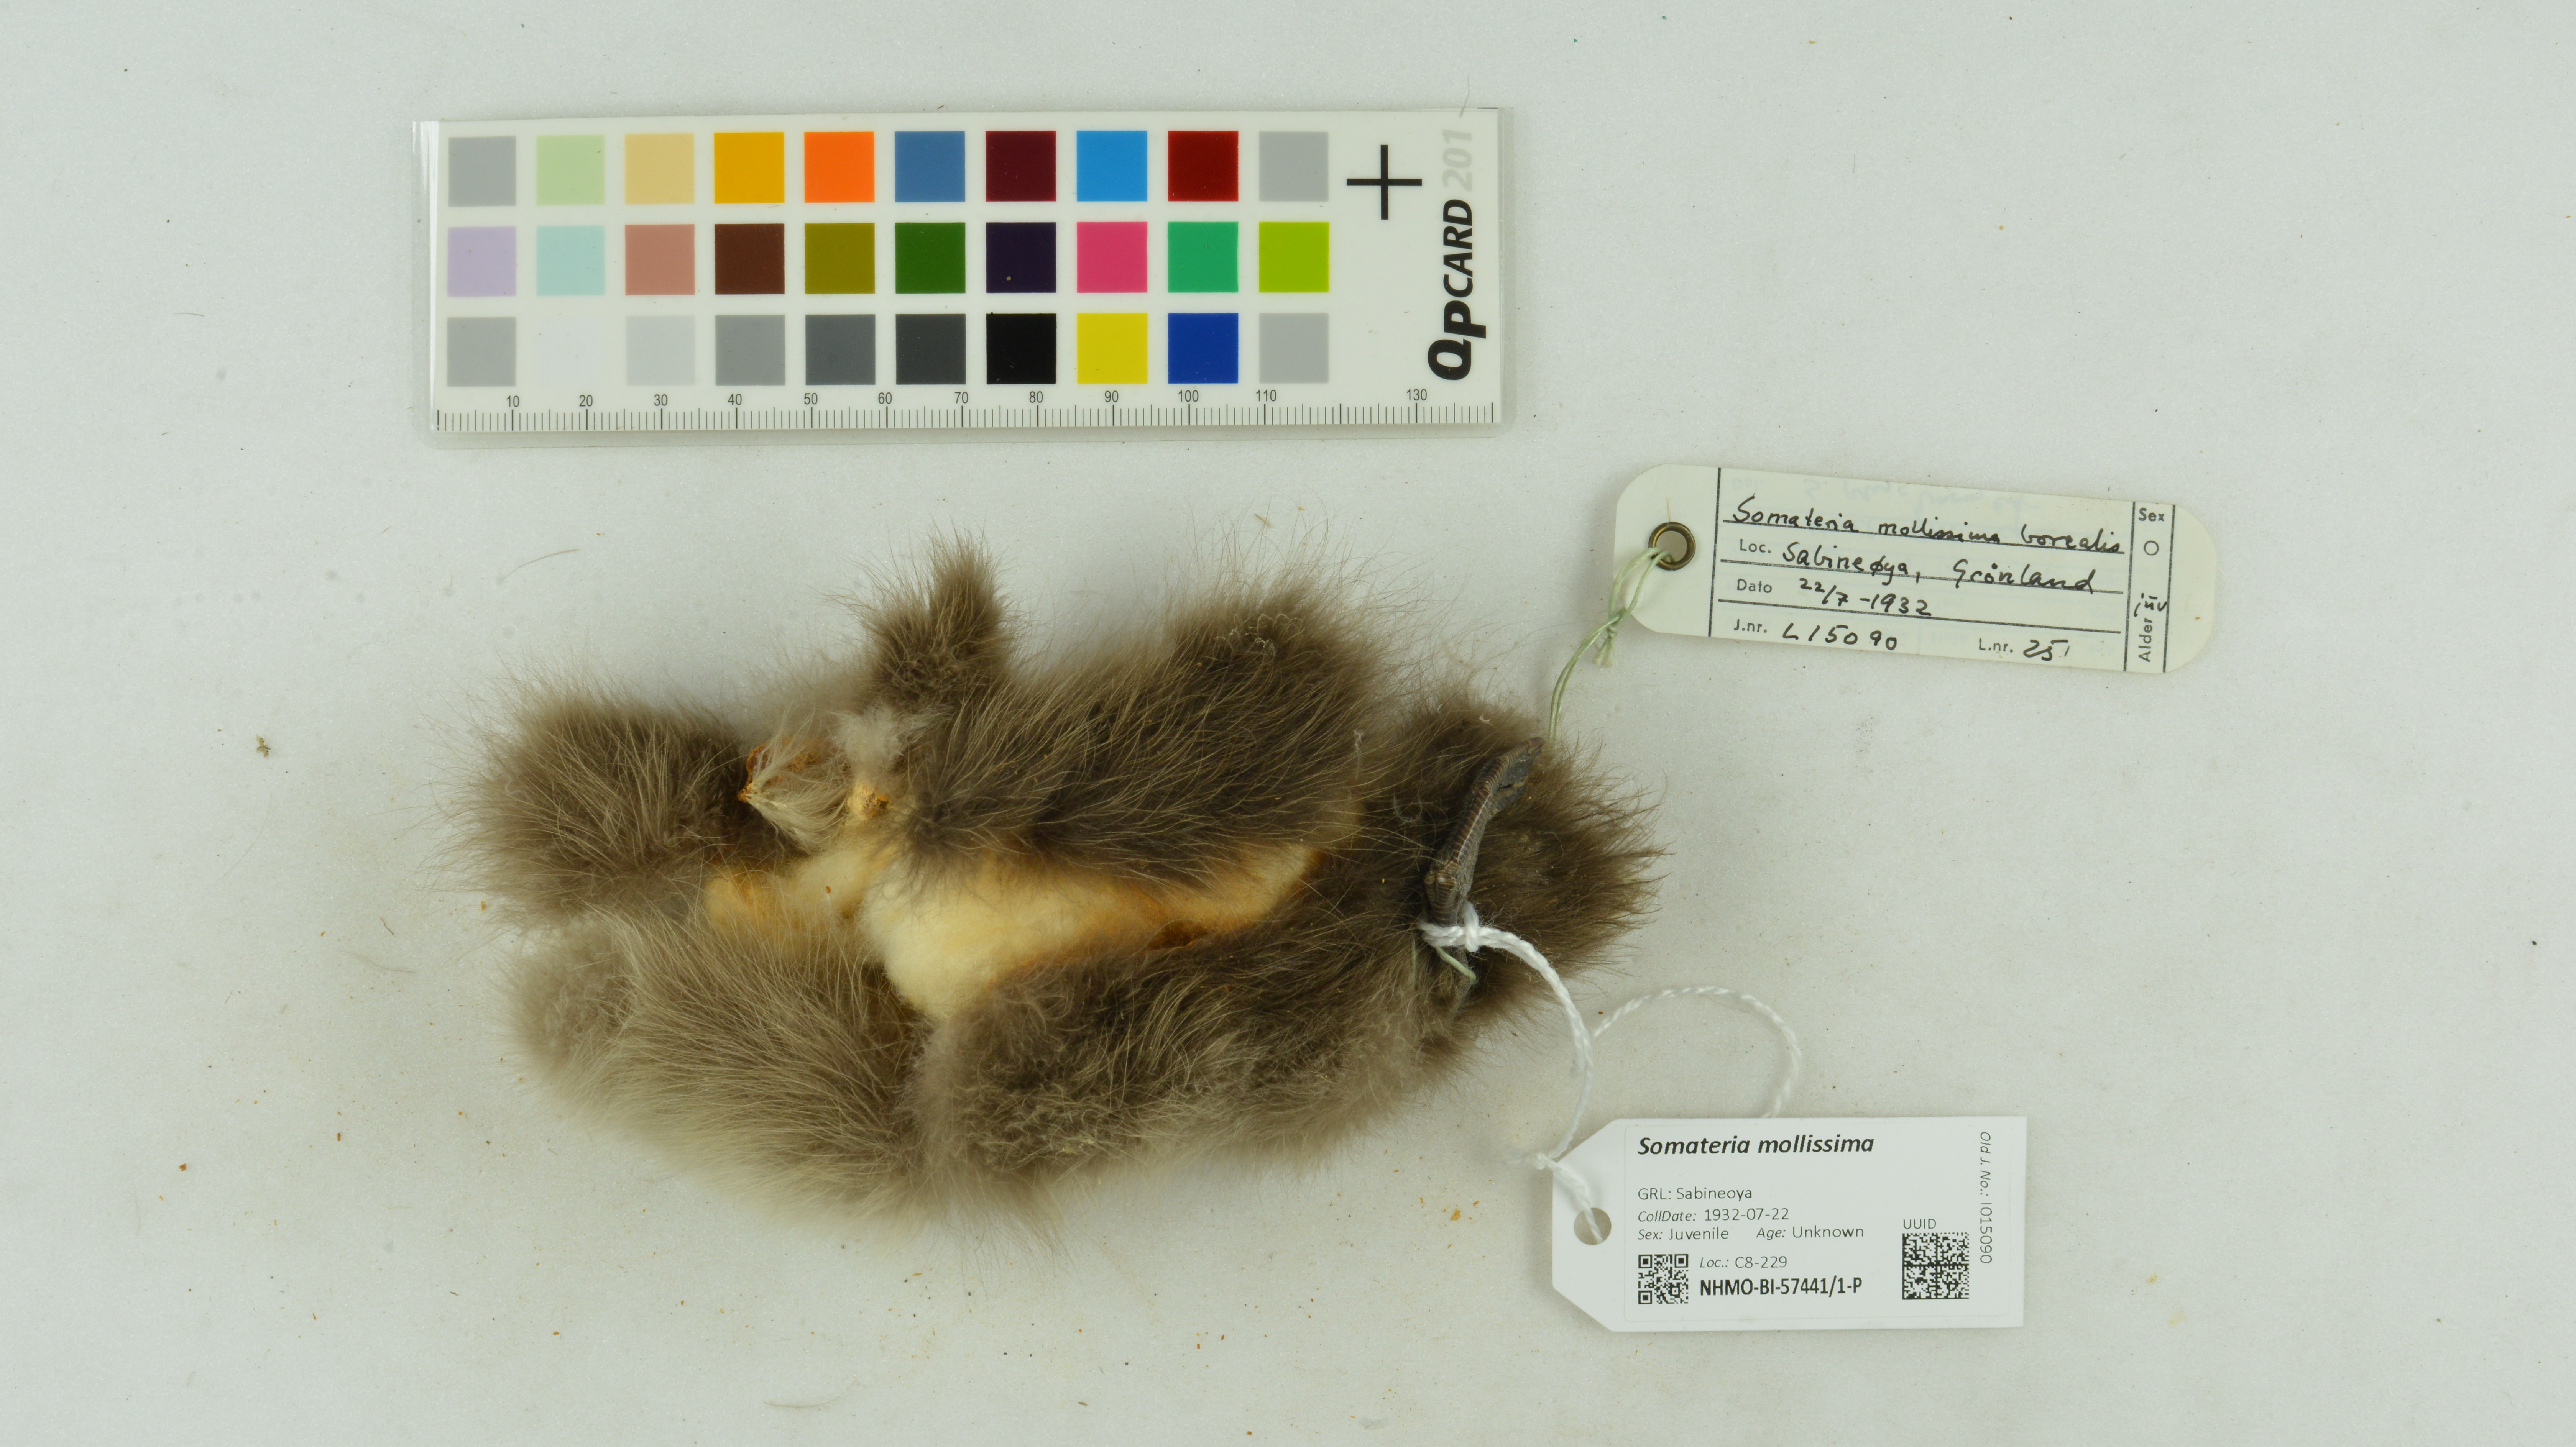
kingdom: Animalia
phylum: Chordata
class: Aves
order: Anseriformes
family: Anatidae
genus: Somateria
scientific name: Somateria mollissima
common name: Common eider
